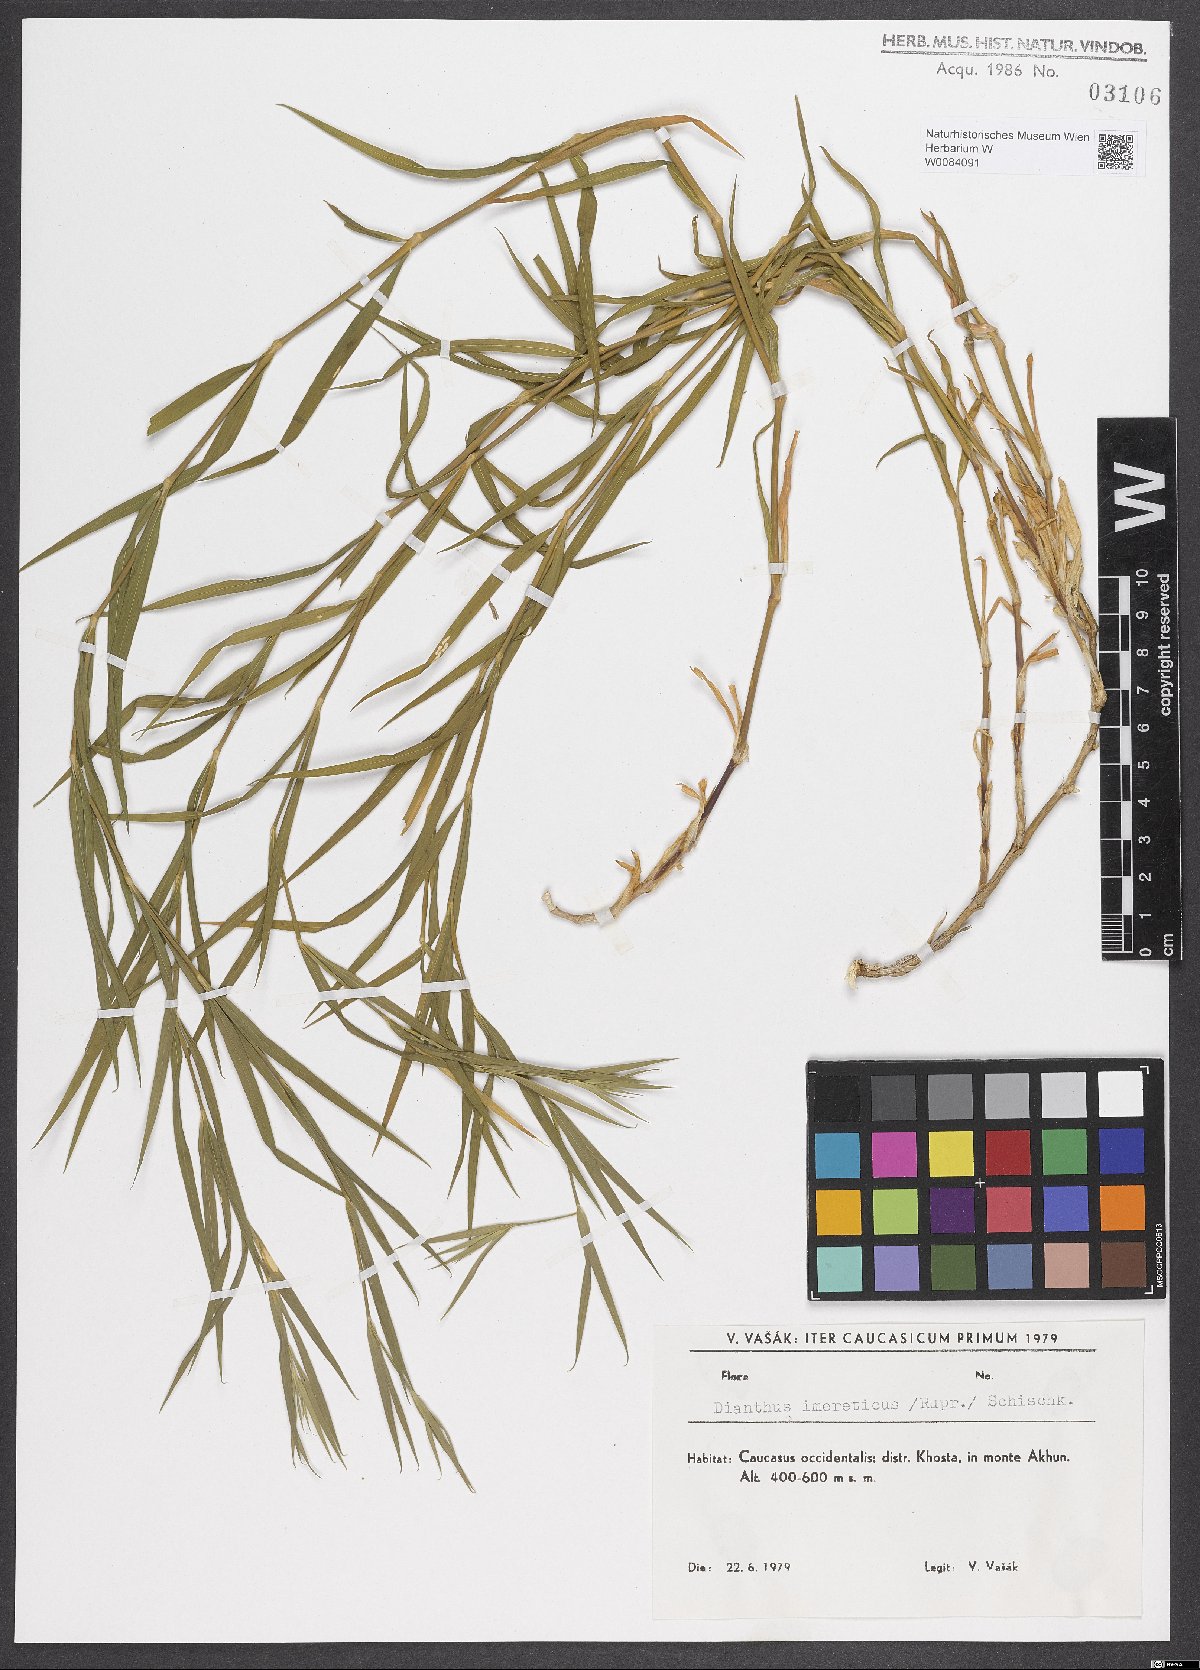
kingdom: Plantae
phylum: Tracheophyta
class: Magnoliopsida
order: Caryophyllales
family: Caryophyllaceae
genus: Dianthus
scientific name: Dianthus imereticus
